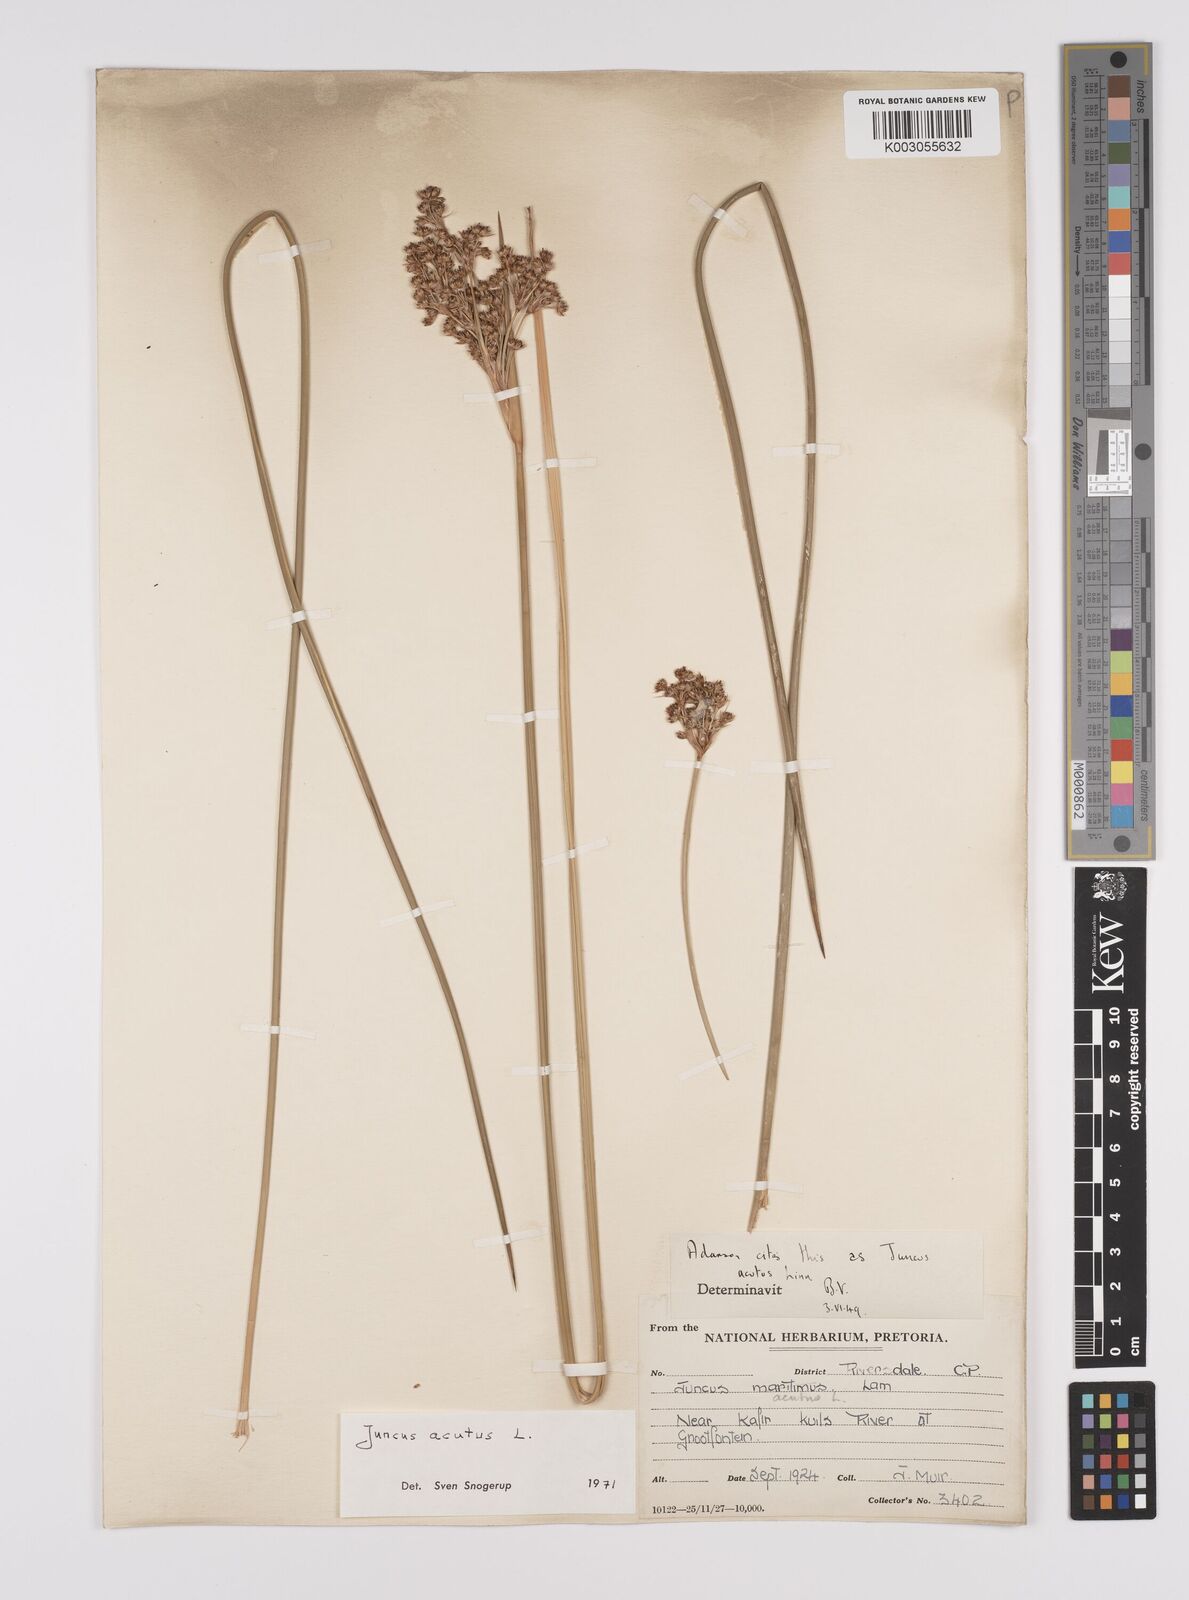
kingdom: Plantae
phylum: Tracheophyta
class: Liliopsida
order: Poales
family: Juncaceae
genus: Juncus
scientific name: Juncus acutus
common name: Sharp rush
